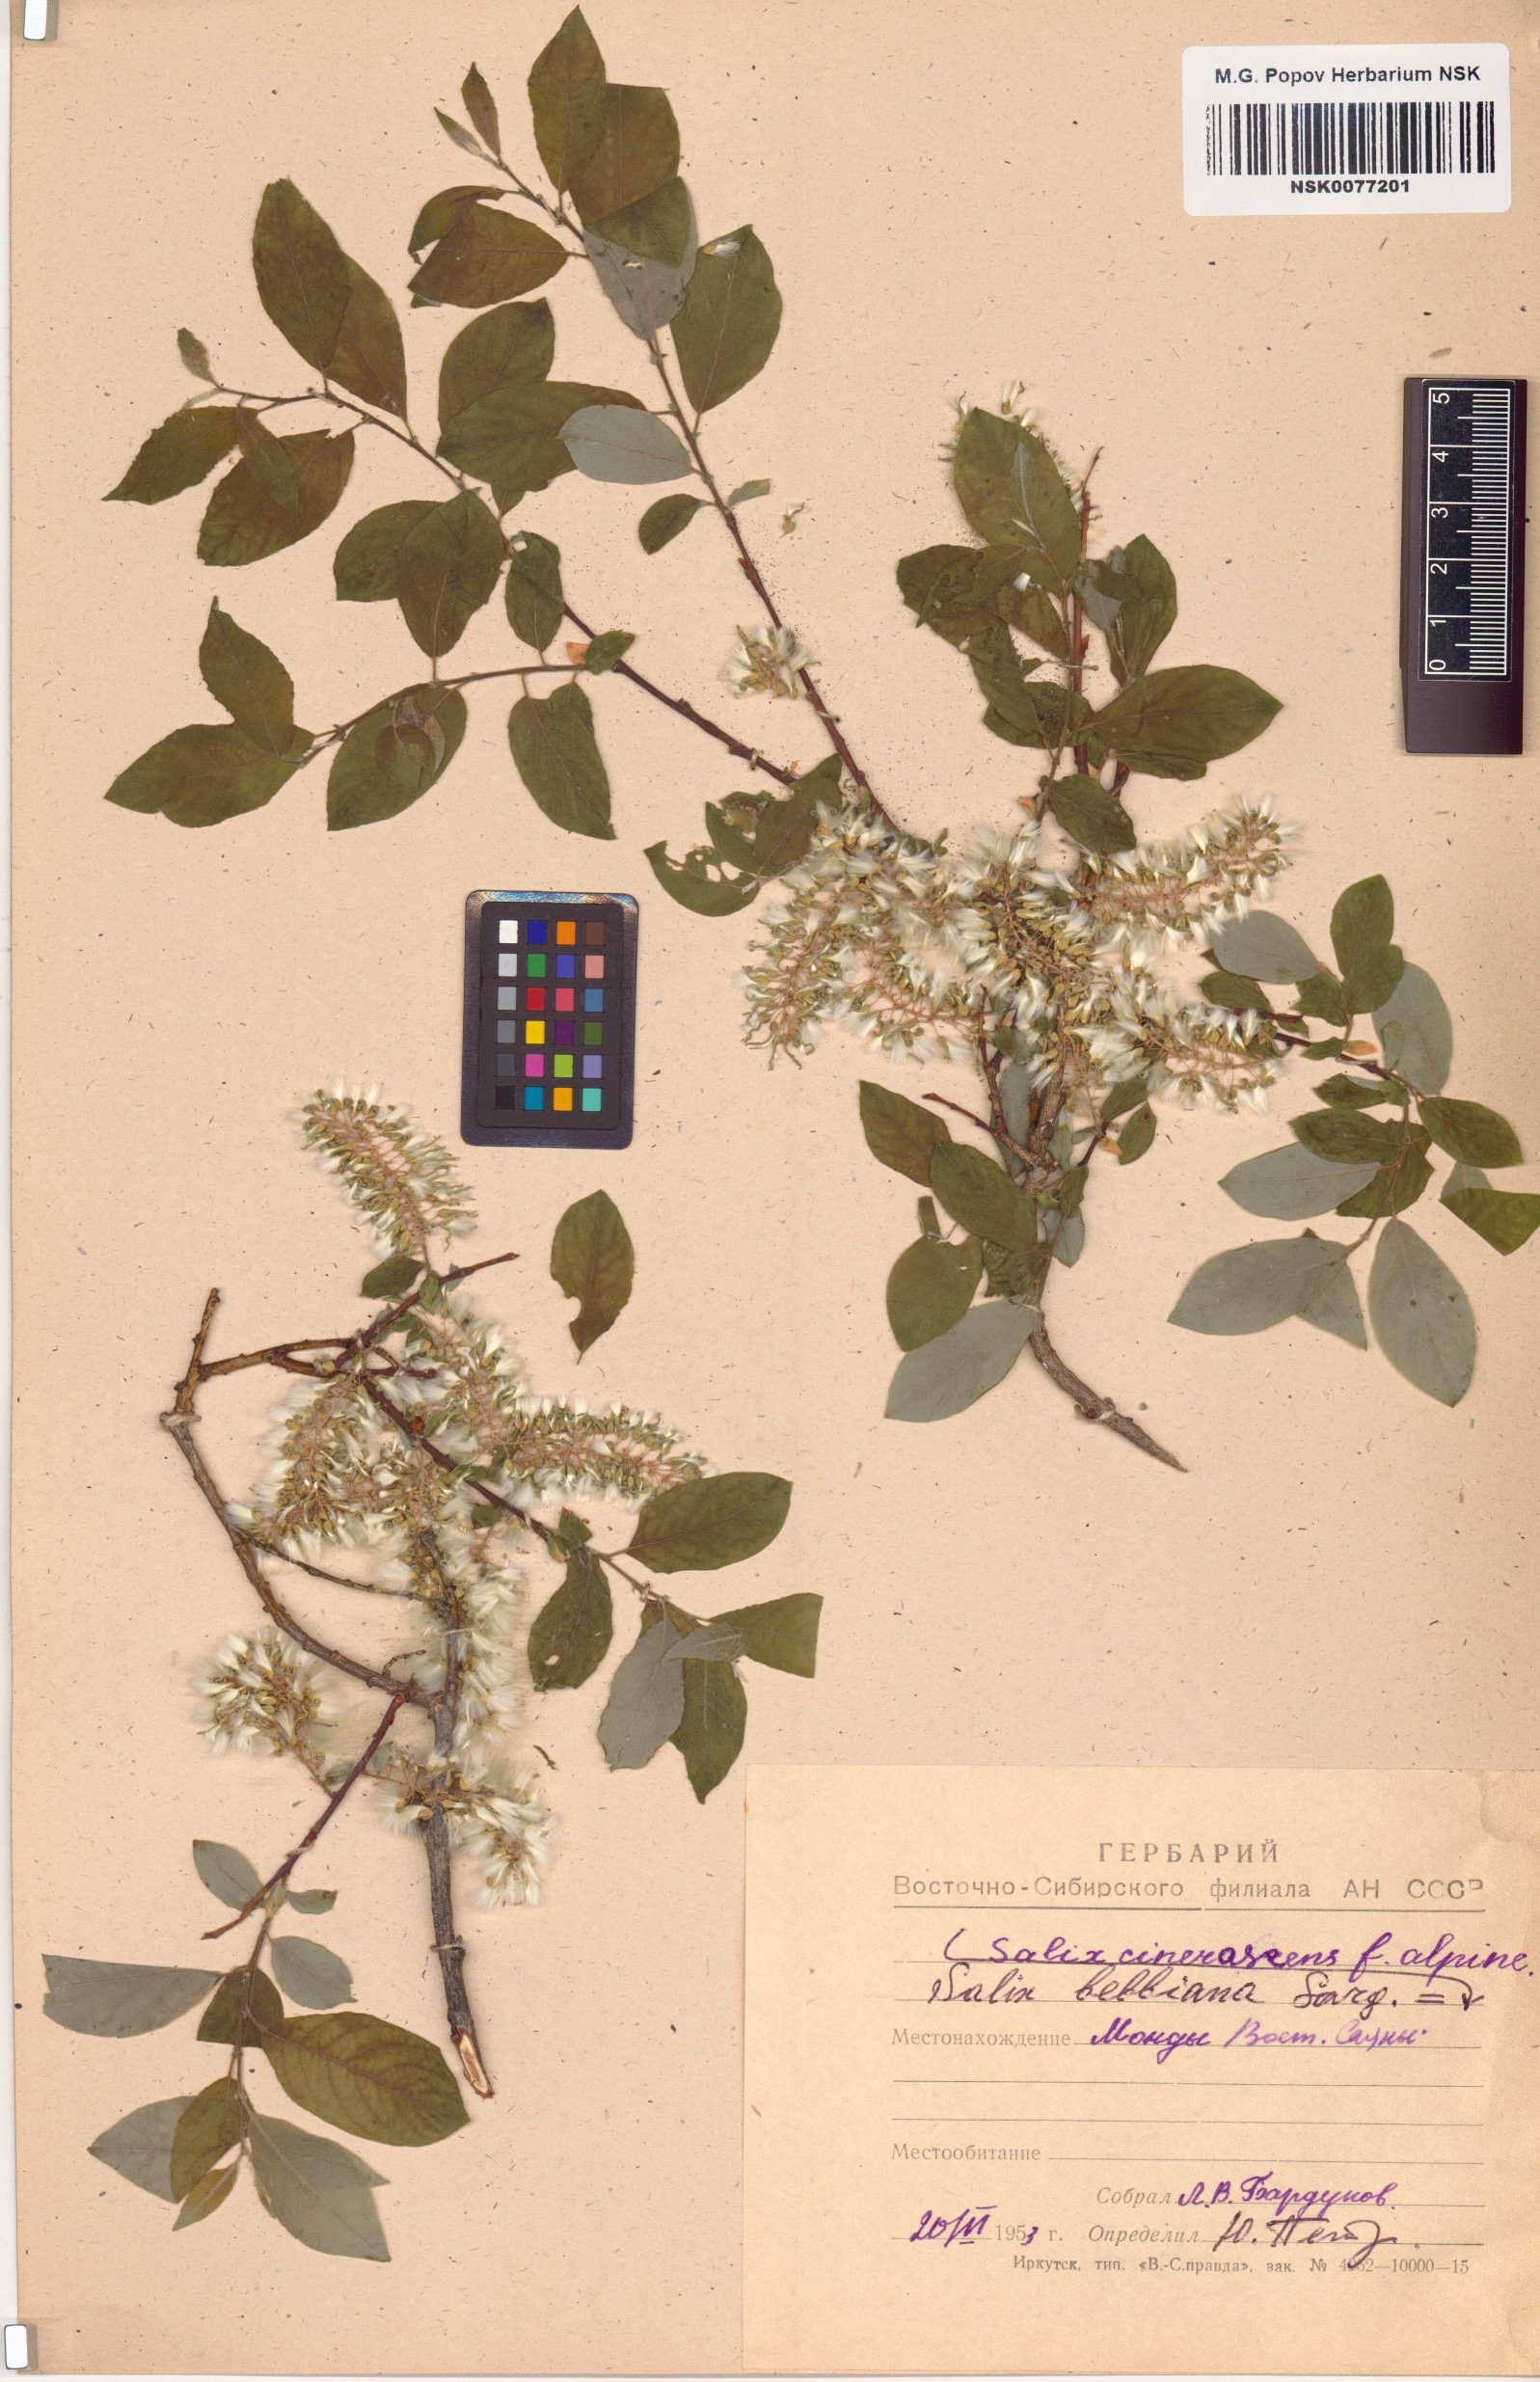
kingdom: Plantae
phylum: Tracheophyta
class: Magnoliopsida
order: Malpighiales
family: Salicaceae
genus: Salix
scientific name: Salix bebbiana
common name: Bebb's willow
